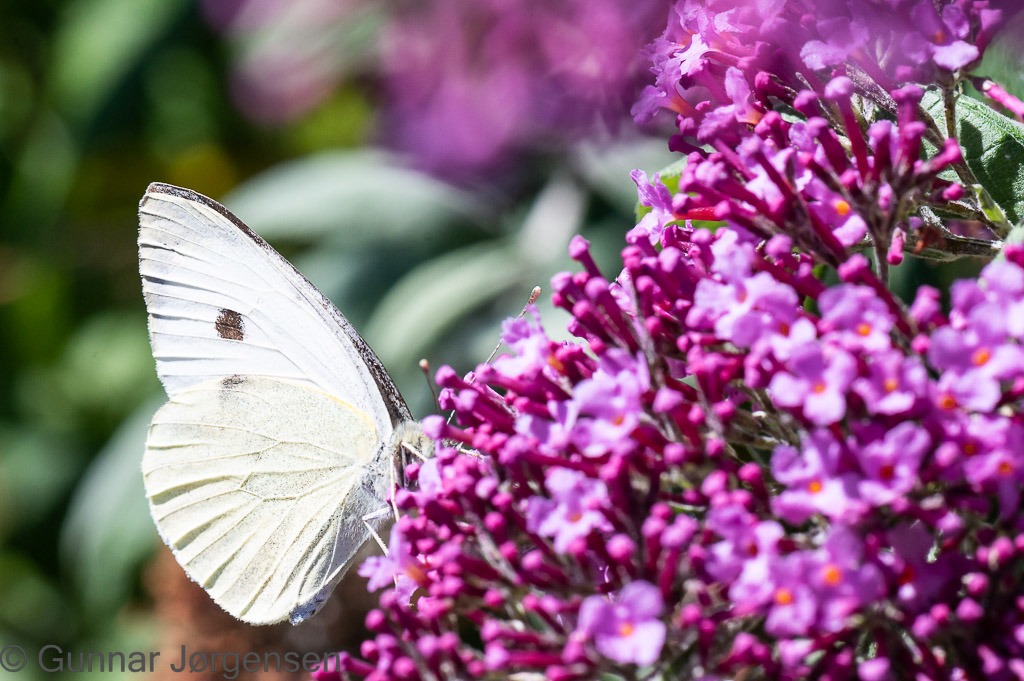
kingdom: Animalia
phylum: Arthropoda
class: Insecta
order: Lepidoptera
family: Pieridae
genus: Pieris
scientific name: Pieris brassicae
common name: Stor kålsommerfugl
